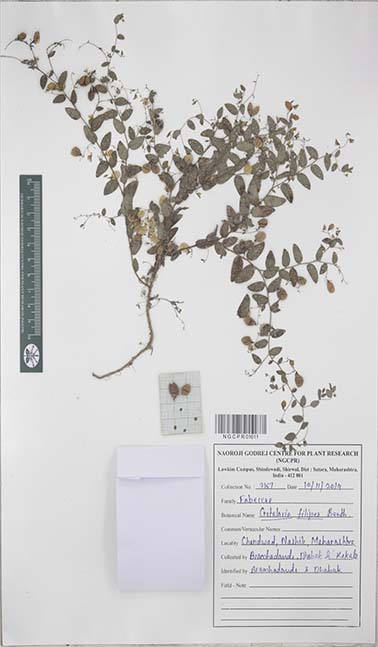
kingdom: Plantae
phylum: Tracheophyta
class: Magnoliopsida
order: Fabales
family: Fabaceae
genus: Crotalaria
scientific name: Crotalaria filipes
